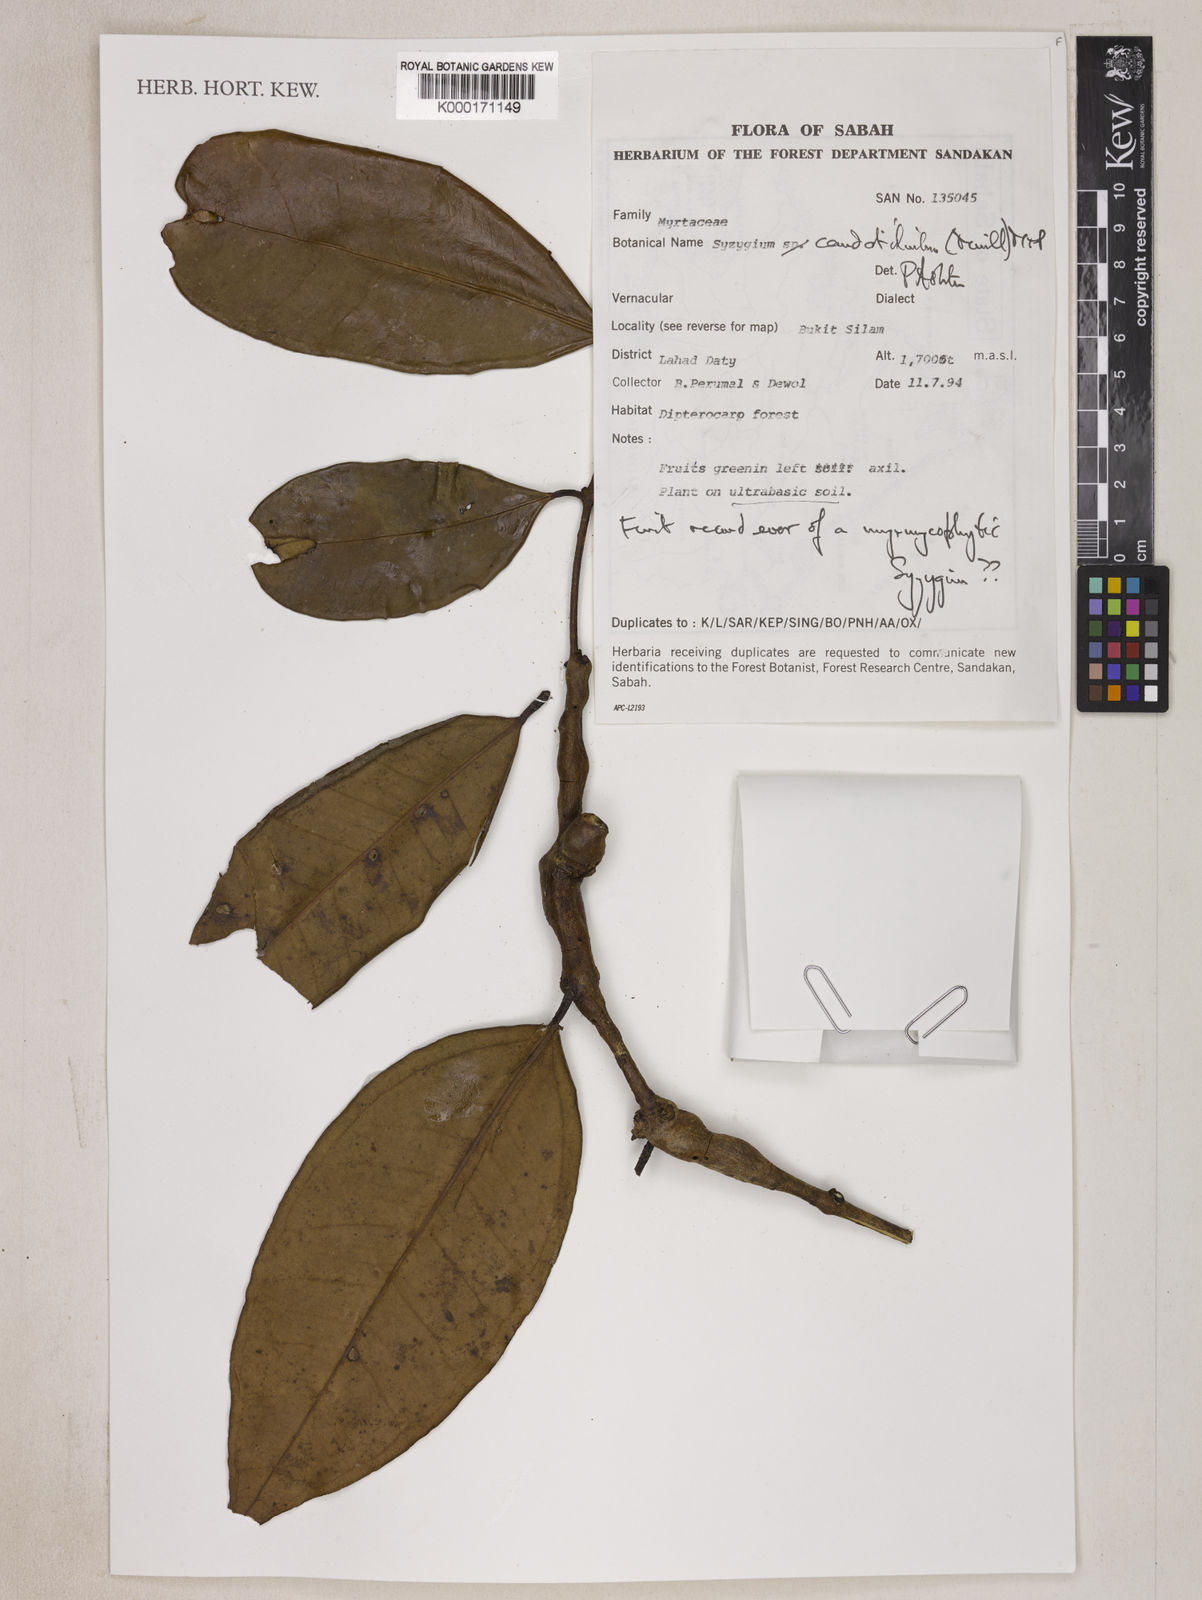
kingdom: Plantae
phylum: Tracheophyta
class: Magnoliopsida
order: Myrtales
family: Myrtaceae
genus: Syzygium
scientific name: Syzygium
